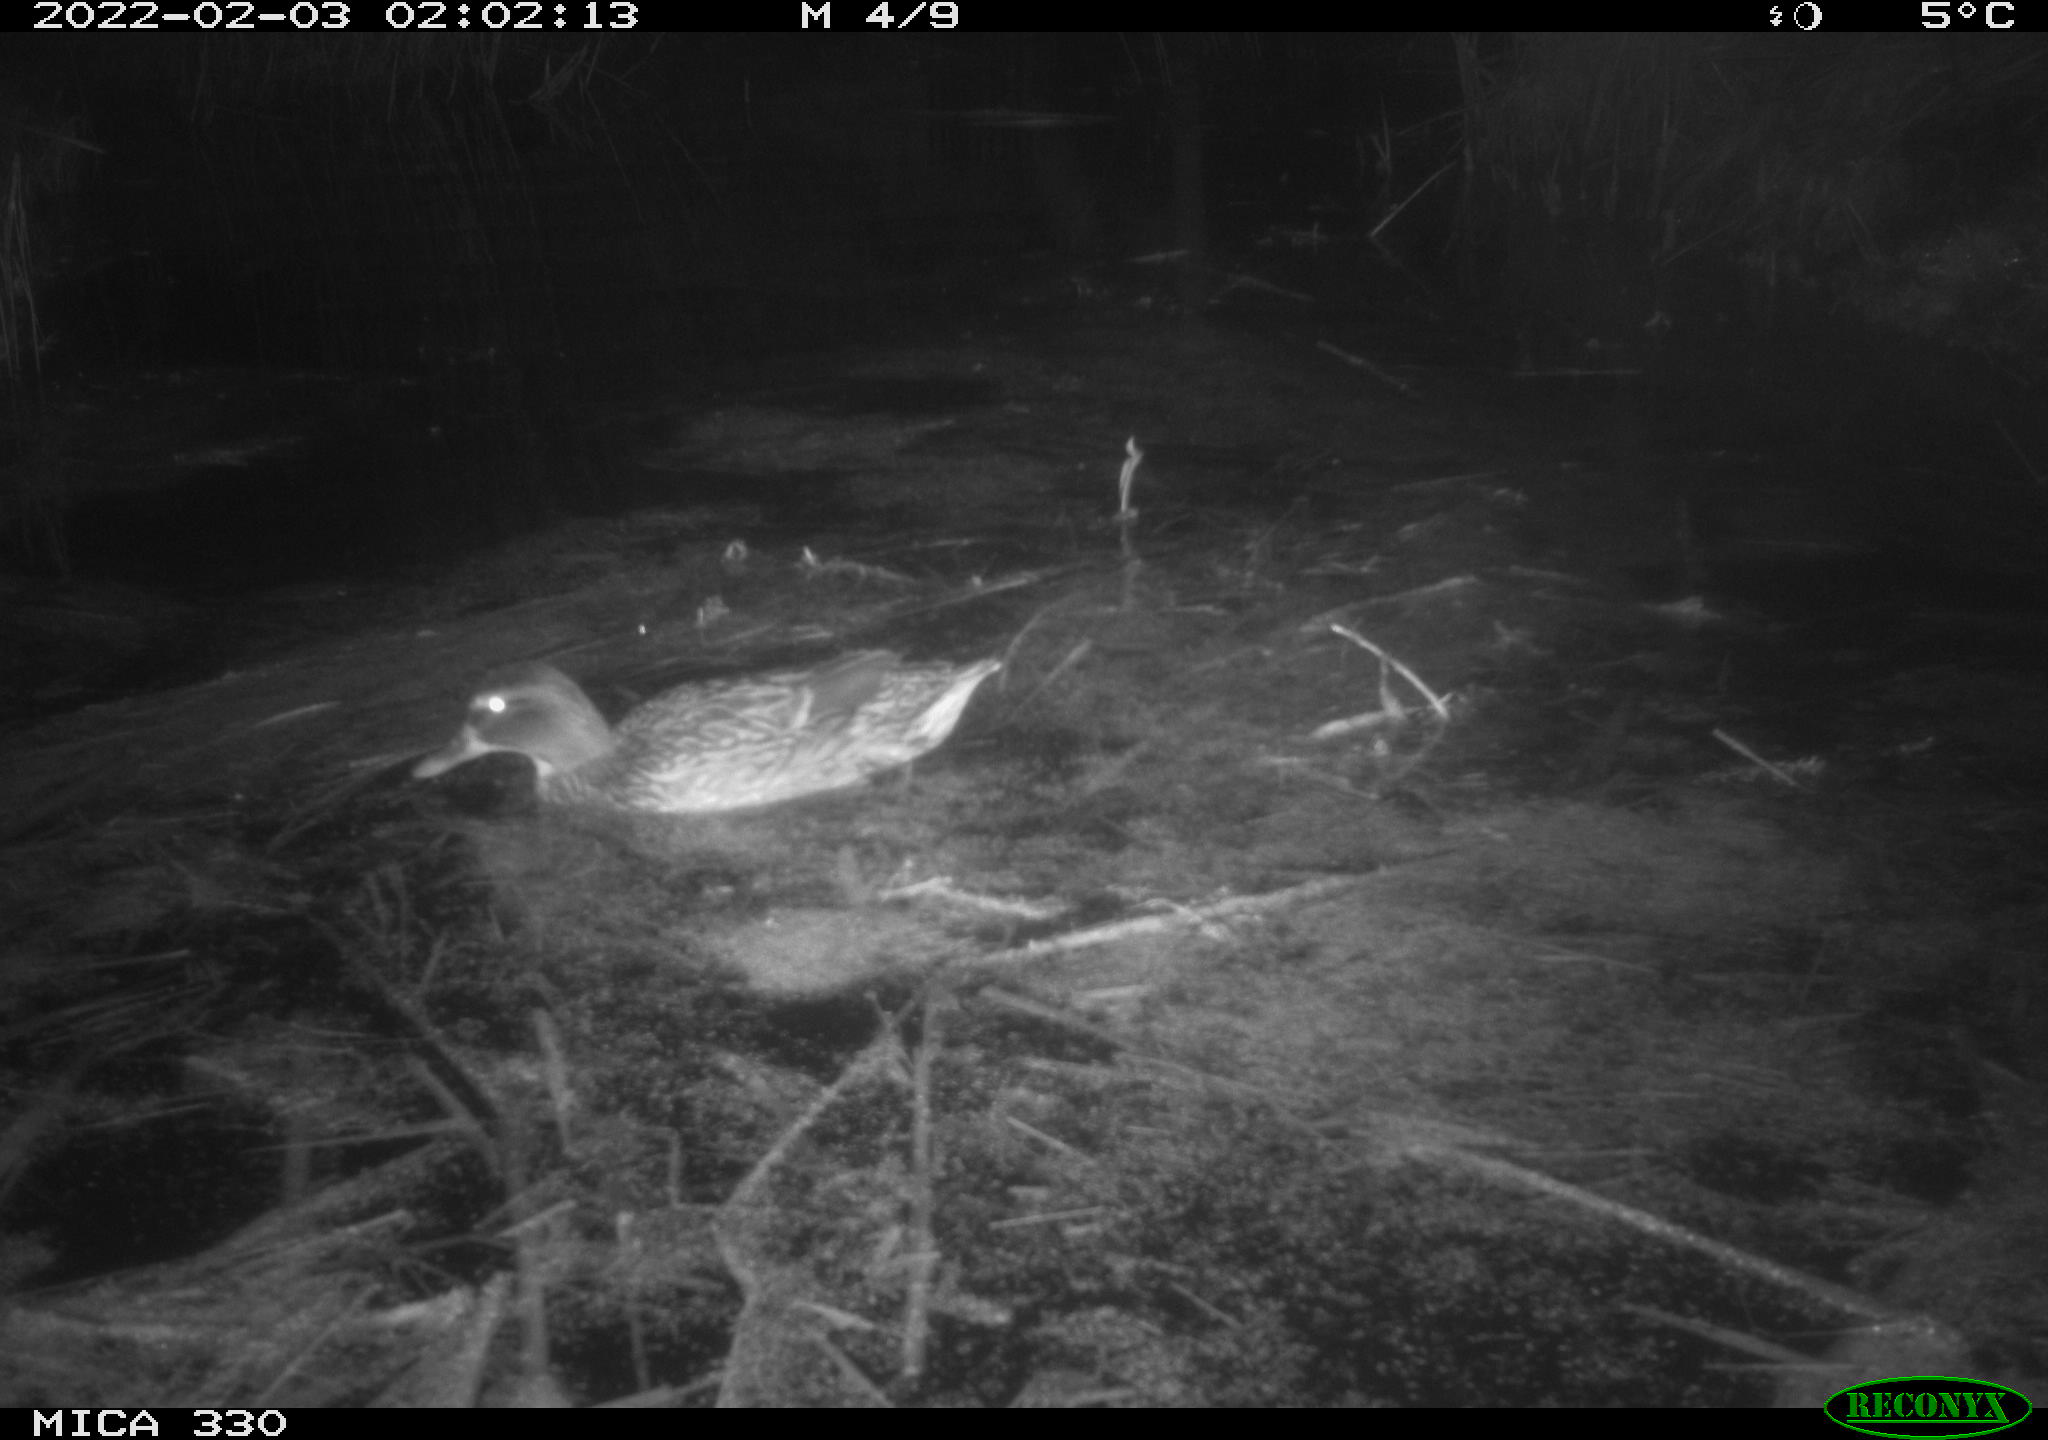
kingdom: Animalia
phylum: Chordata
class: Aves
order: Anseriformes
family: Anatidae
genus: Anas
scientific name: Anas platyrhynchos
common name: Mallard
